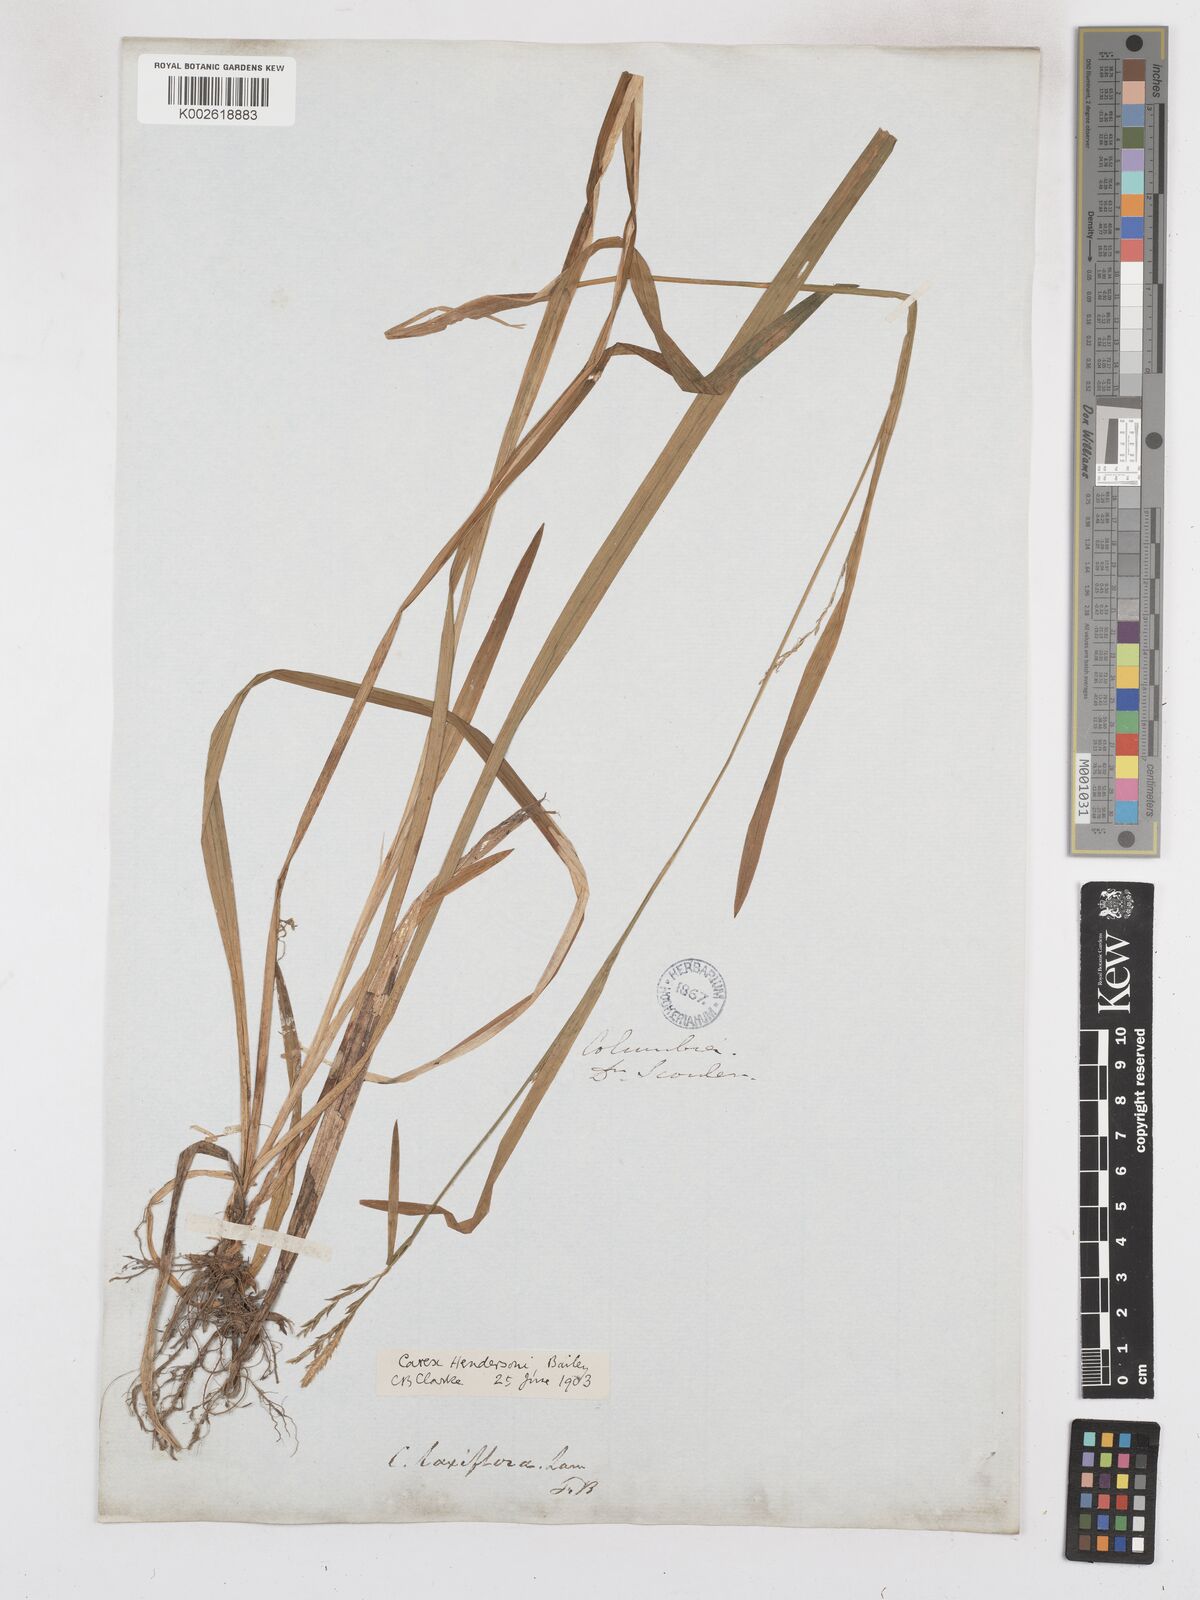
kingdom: Plantae
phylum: Tracheophyta
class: Liliopsida
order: Poales
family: Cyperaceae
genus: Carex
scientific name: Carex hendersonii
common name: Henderson's sedge
